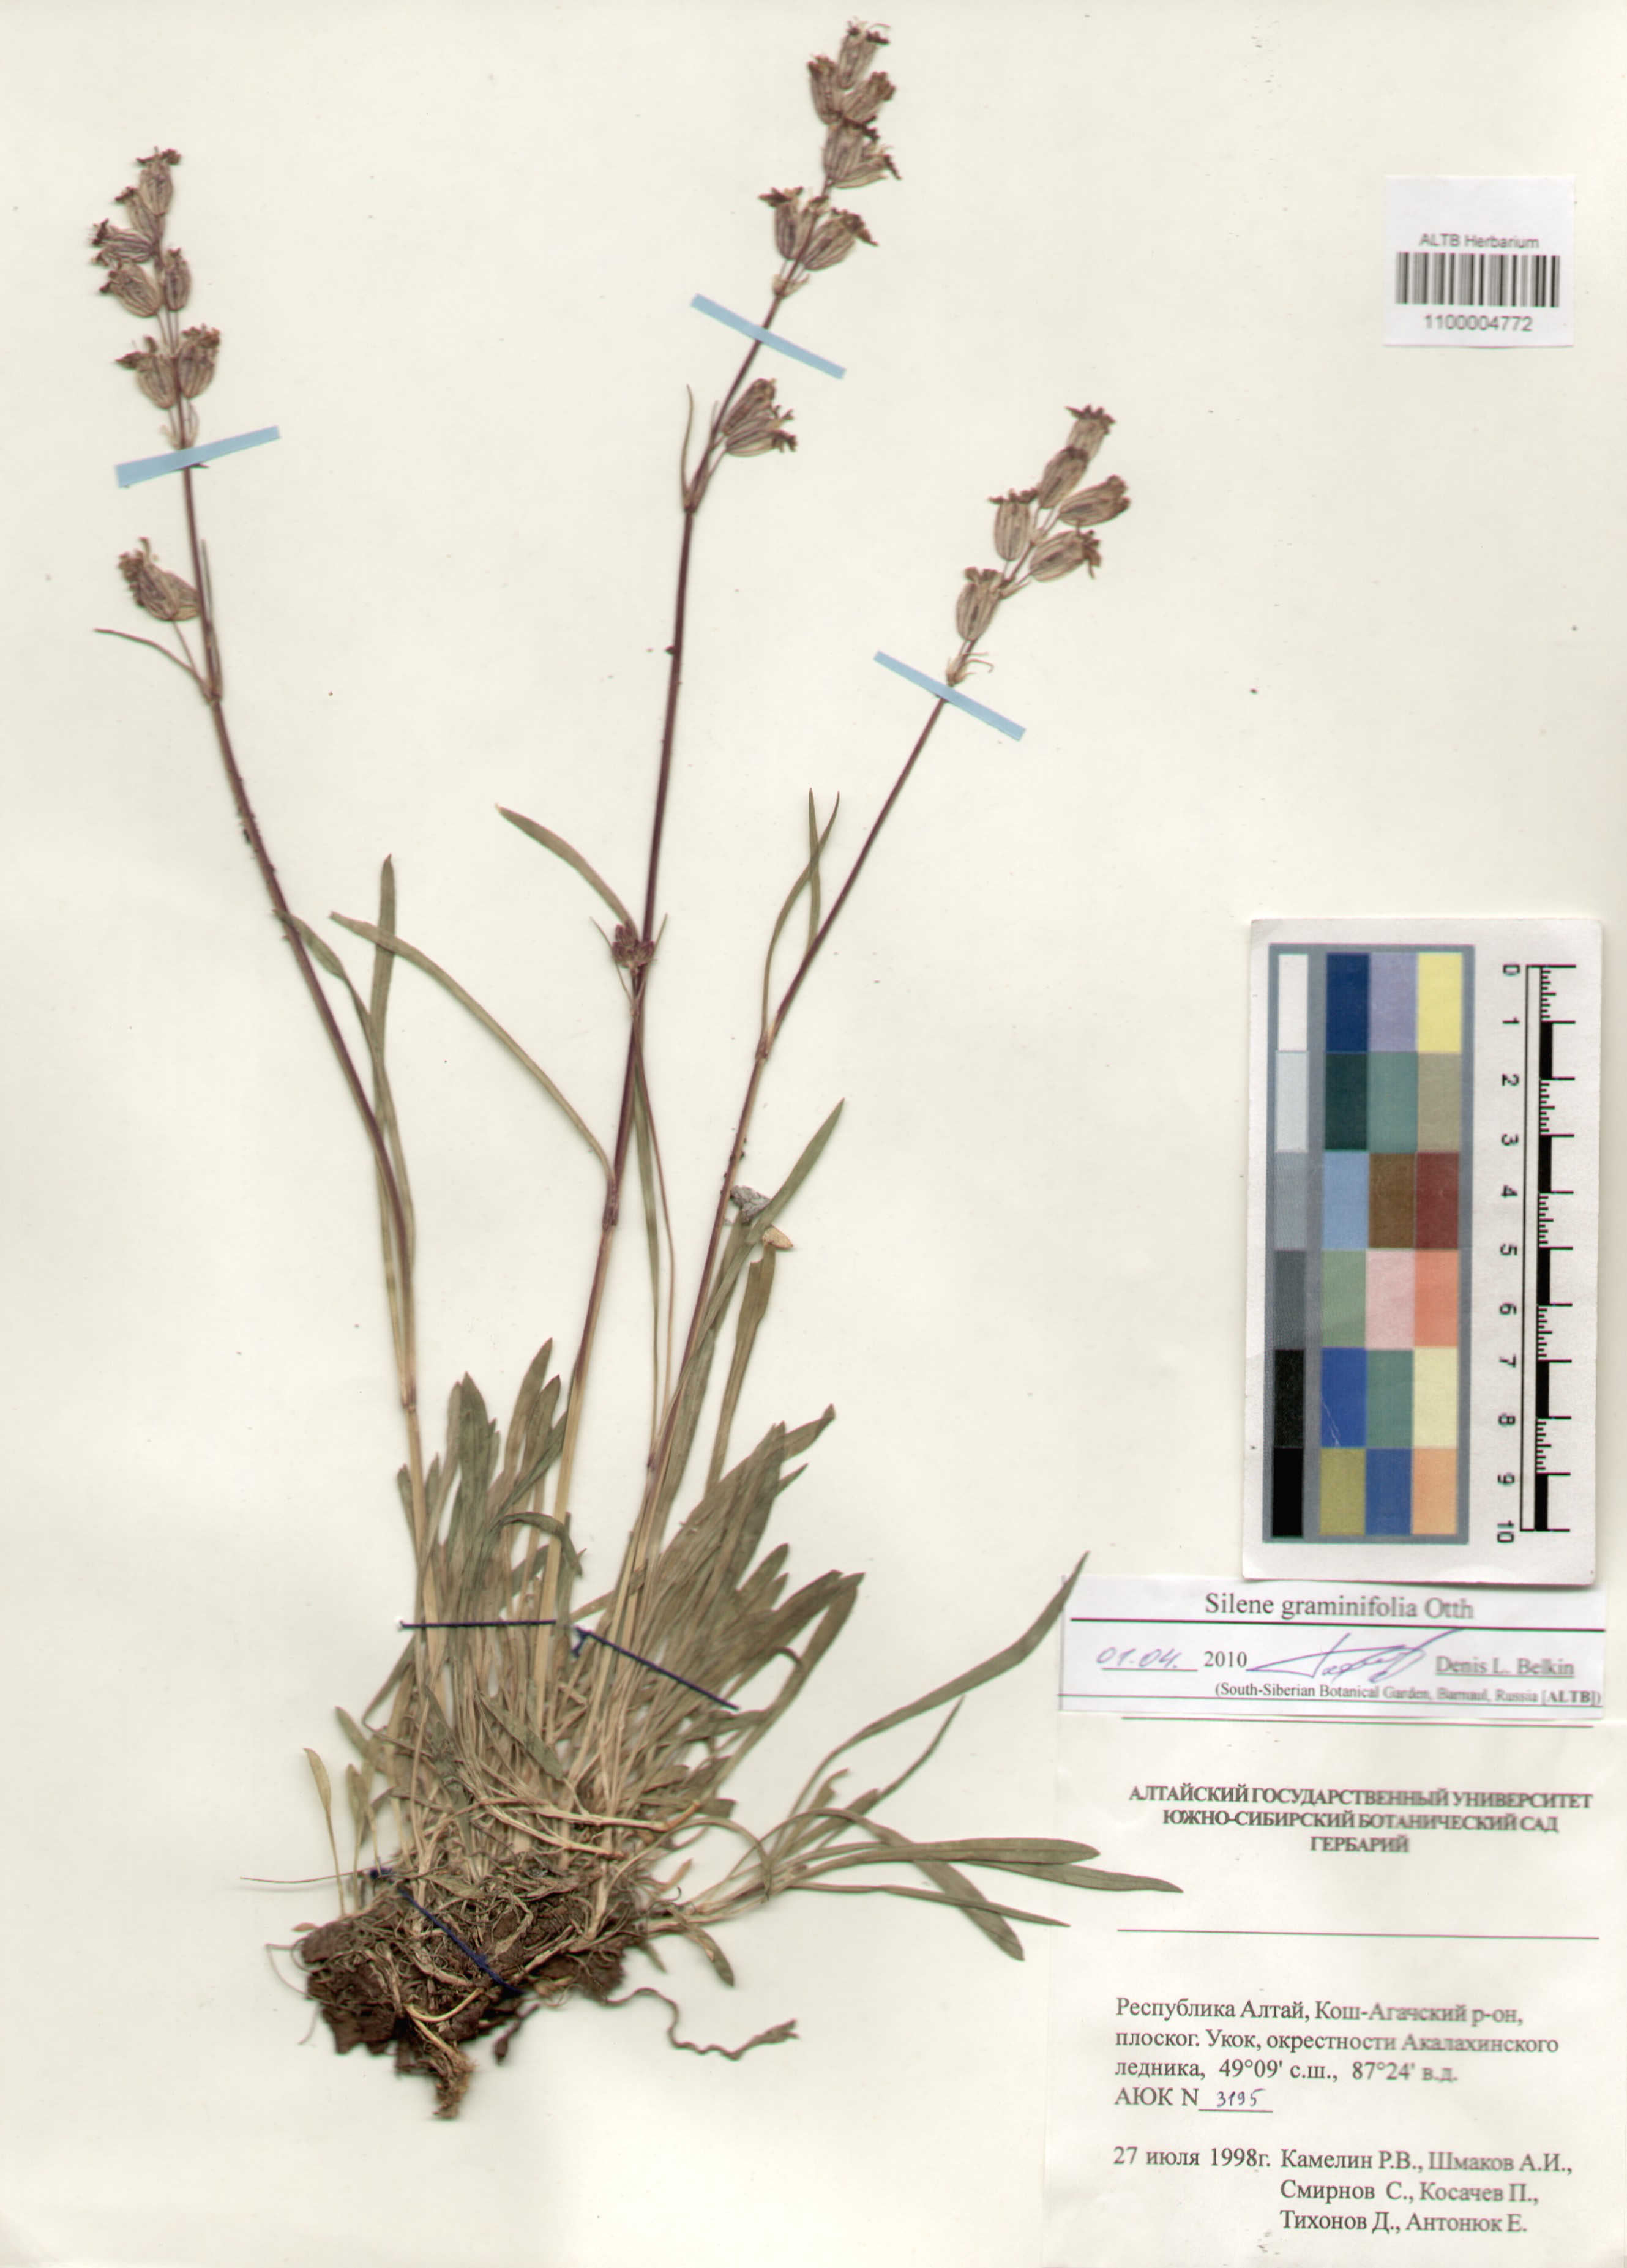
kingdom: Plantae
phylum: Tracheophyta
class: Magnoliopsida
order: Caryophyllales
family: Caryophyllaceae
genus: Silene
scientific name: Silene graminifolia
